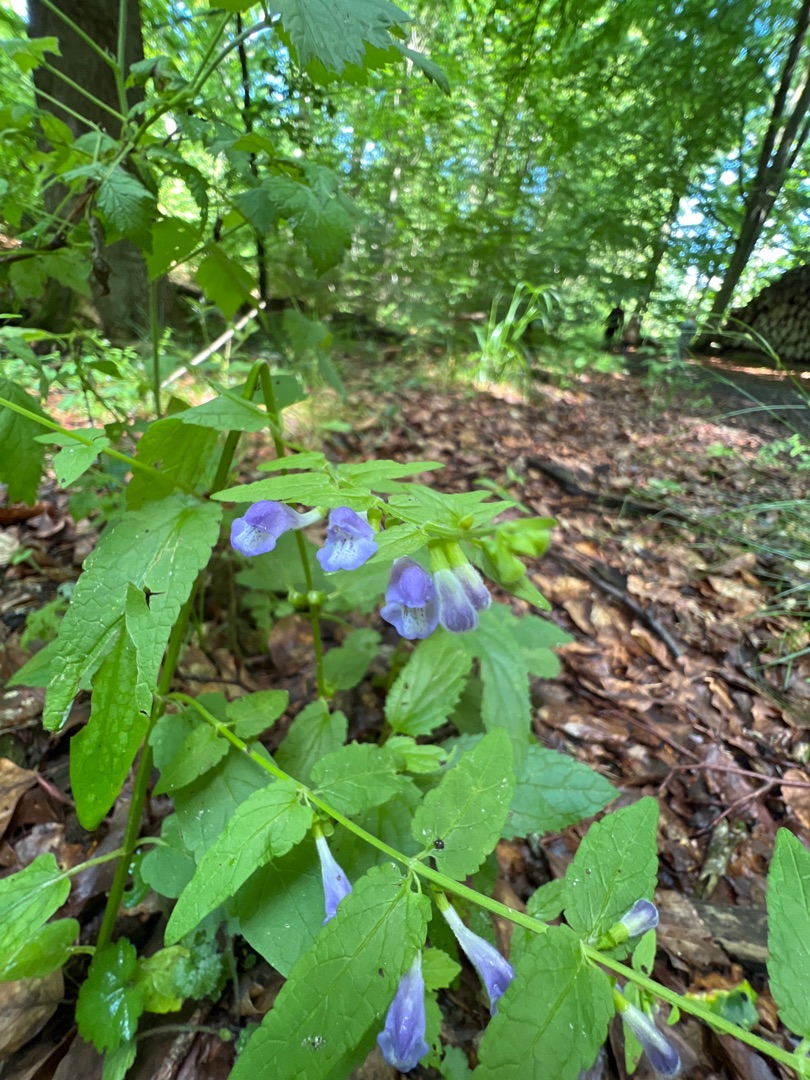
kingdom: Plantae
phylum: Tracheophyta
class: Magnoliopsida
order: Lamiales
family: Lamiaceae
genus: Scutellaria
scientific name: Scutellaria galericulata
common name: Almindelig skjolddrager
